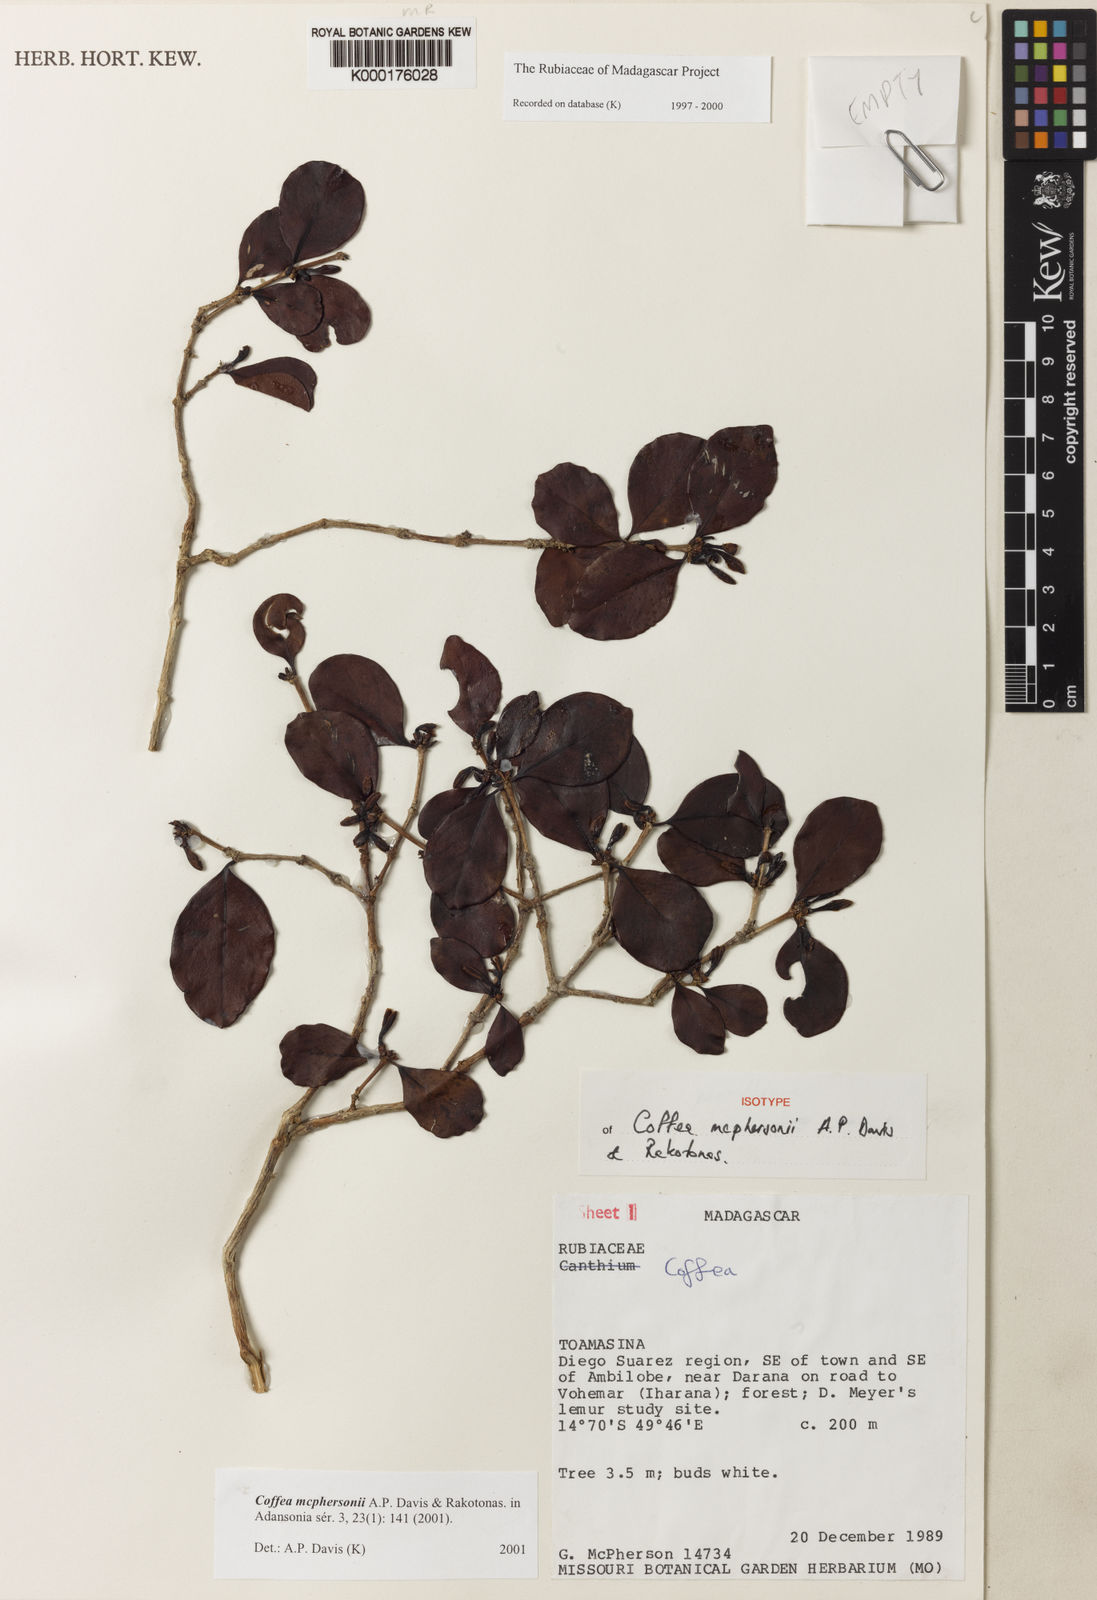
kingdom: Plantae
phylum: Tracheophyta
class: Magnoliopsida
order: Gentianales
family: Rubiaceae
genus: Coffea
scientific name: Coffea mcphersonii
